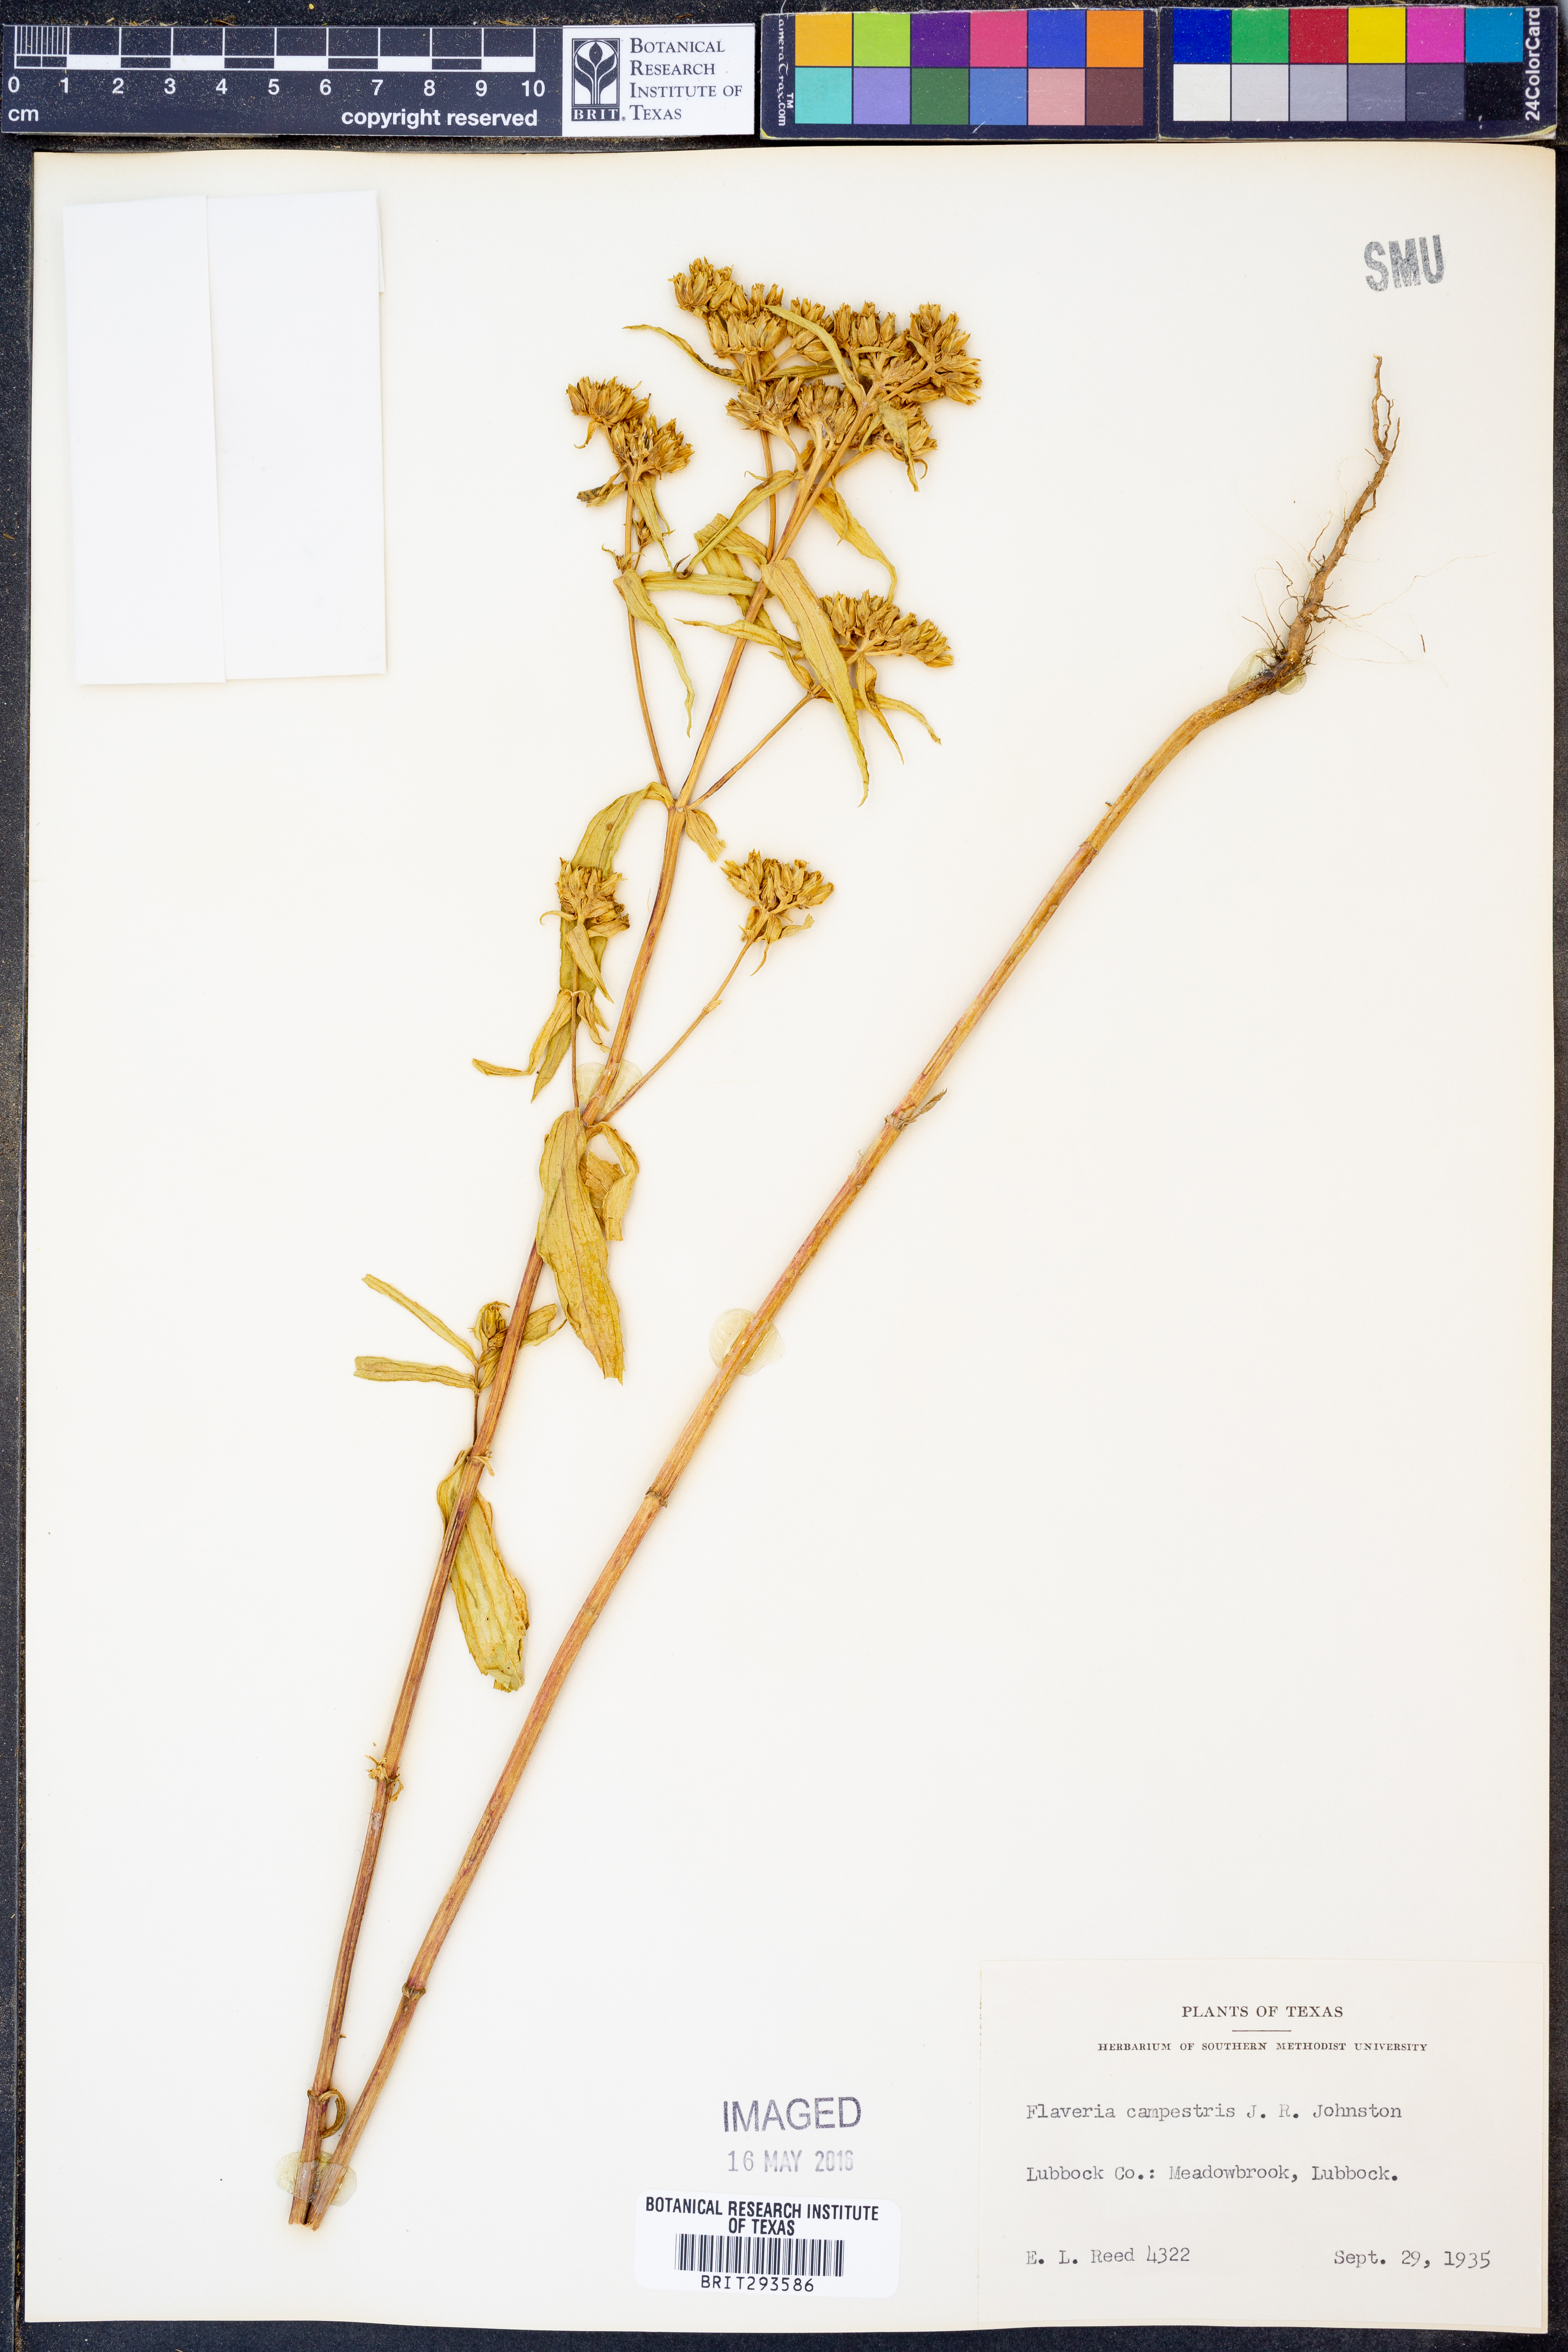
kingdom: Plantae
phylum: Tracheophyta
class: Magnoliopsida
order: Asterales
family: Asteraceae
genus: Flaveria
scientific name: Flaveria campestris
